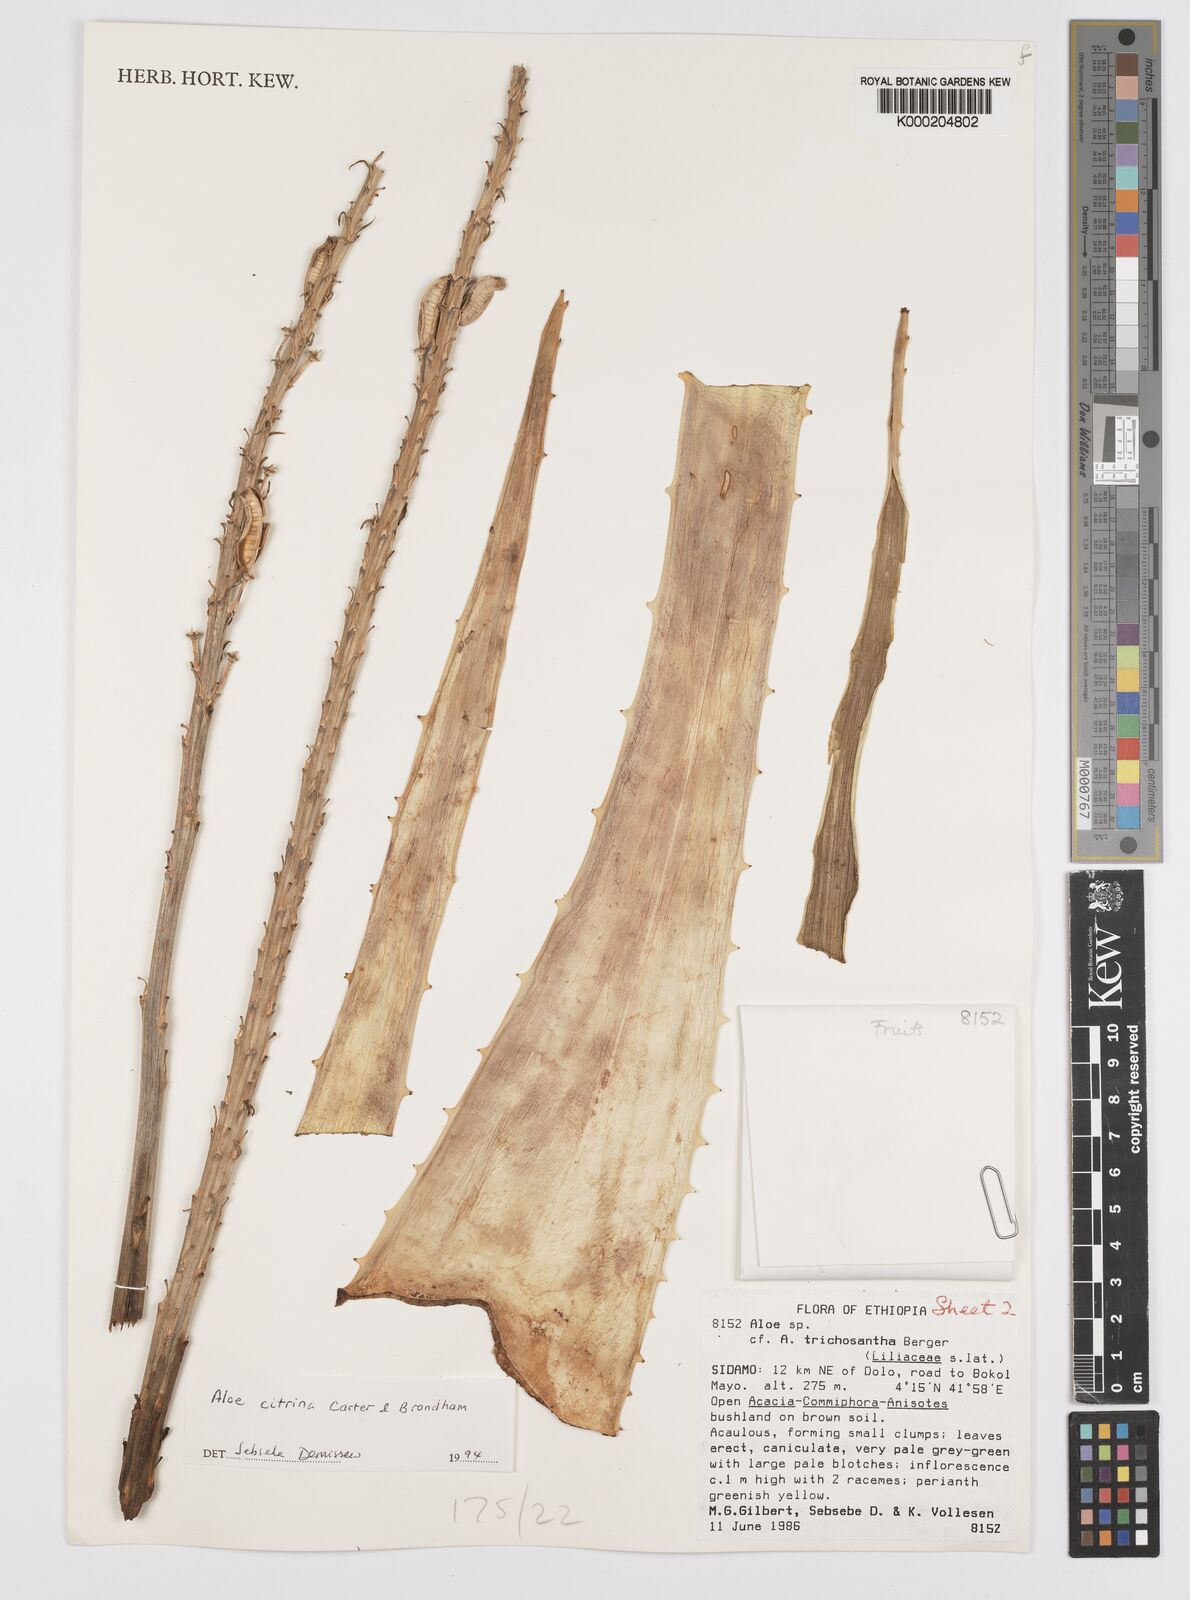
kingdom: Plantae
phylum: Tracheophyta
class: Liliopsida
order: Asparagales
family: Asphodelaceae
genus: Aloe
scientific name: Aloe citrina
